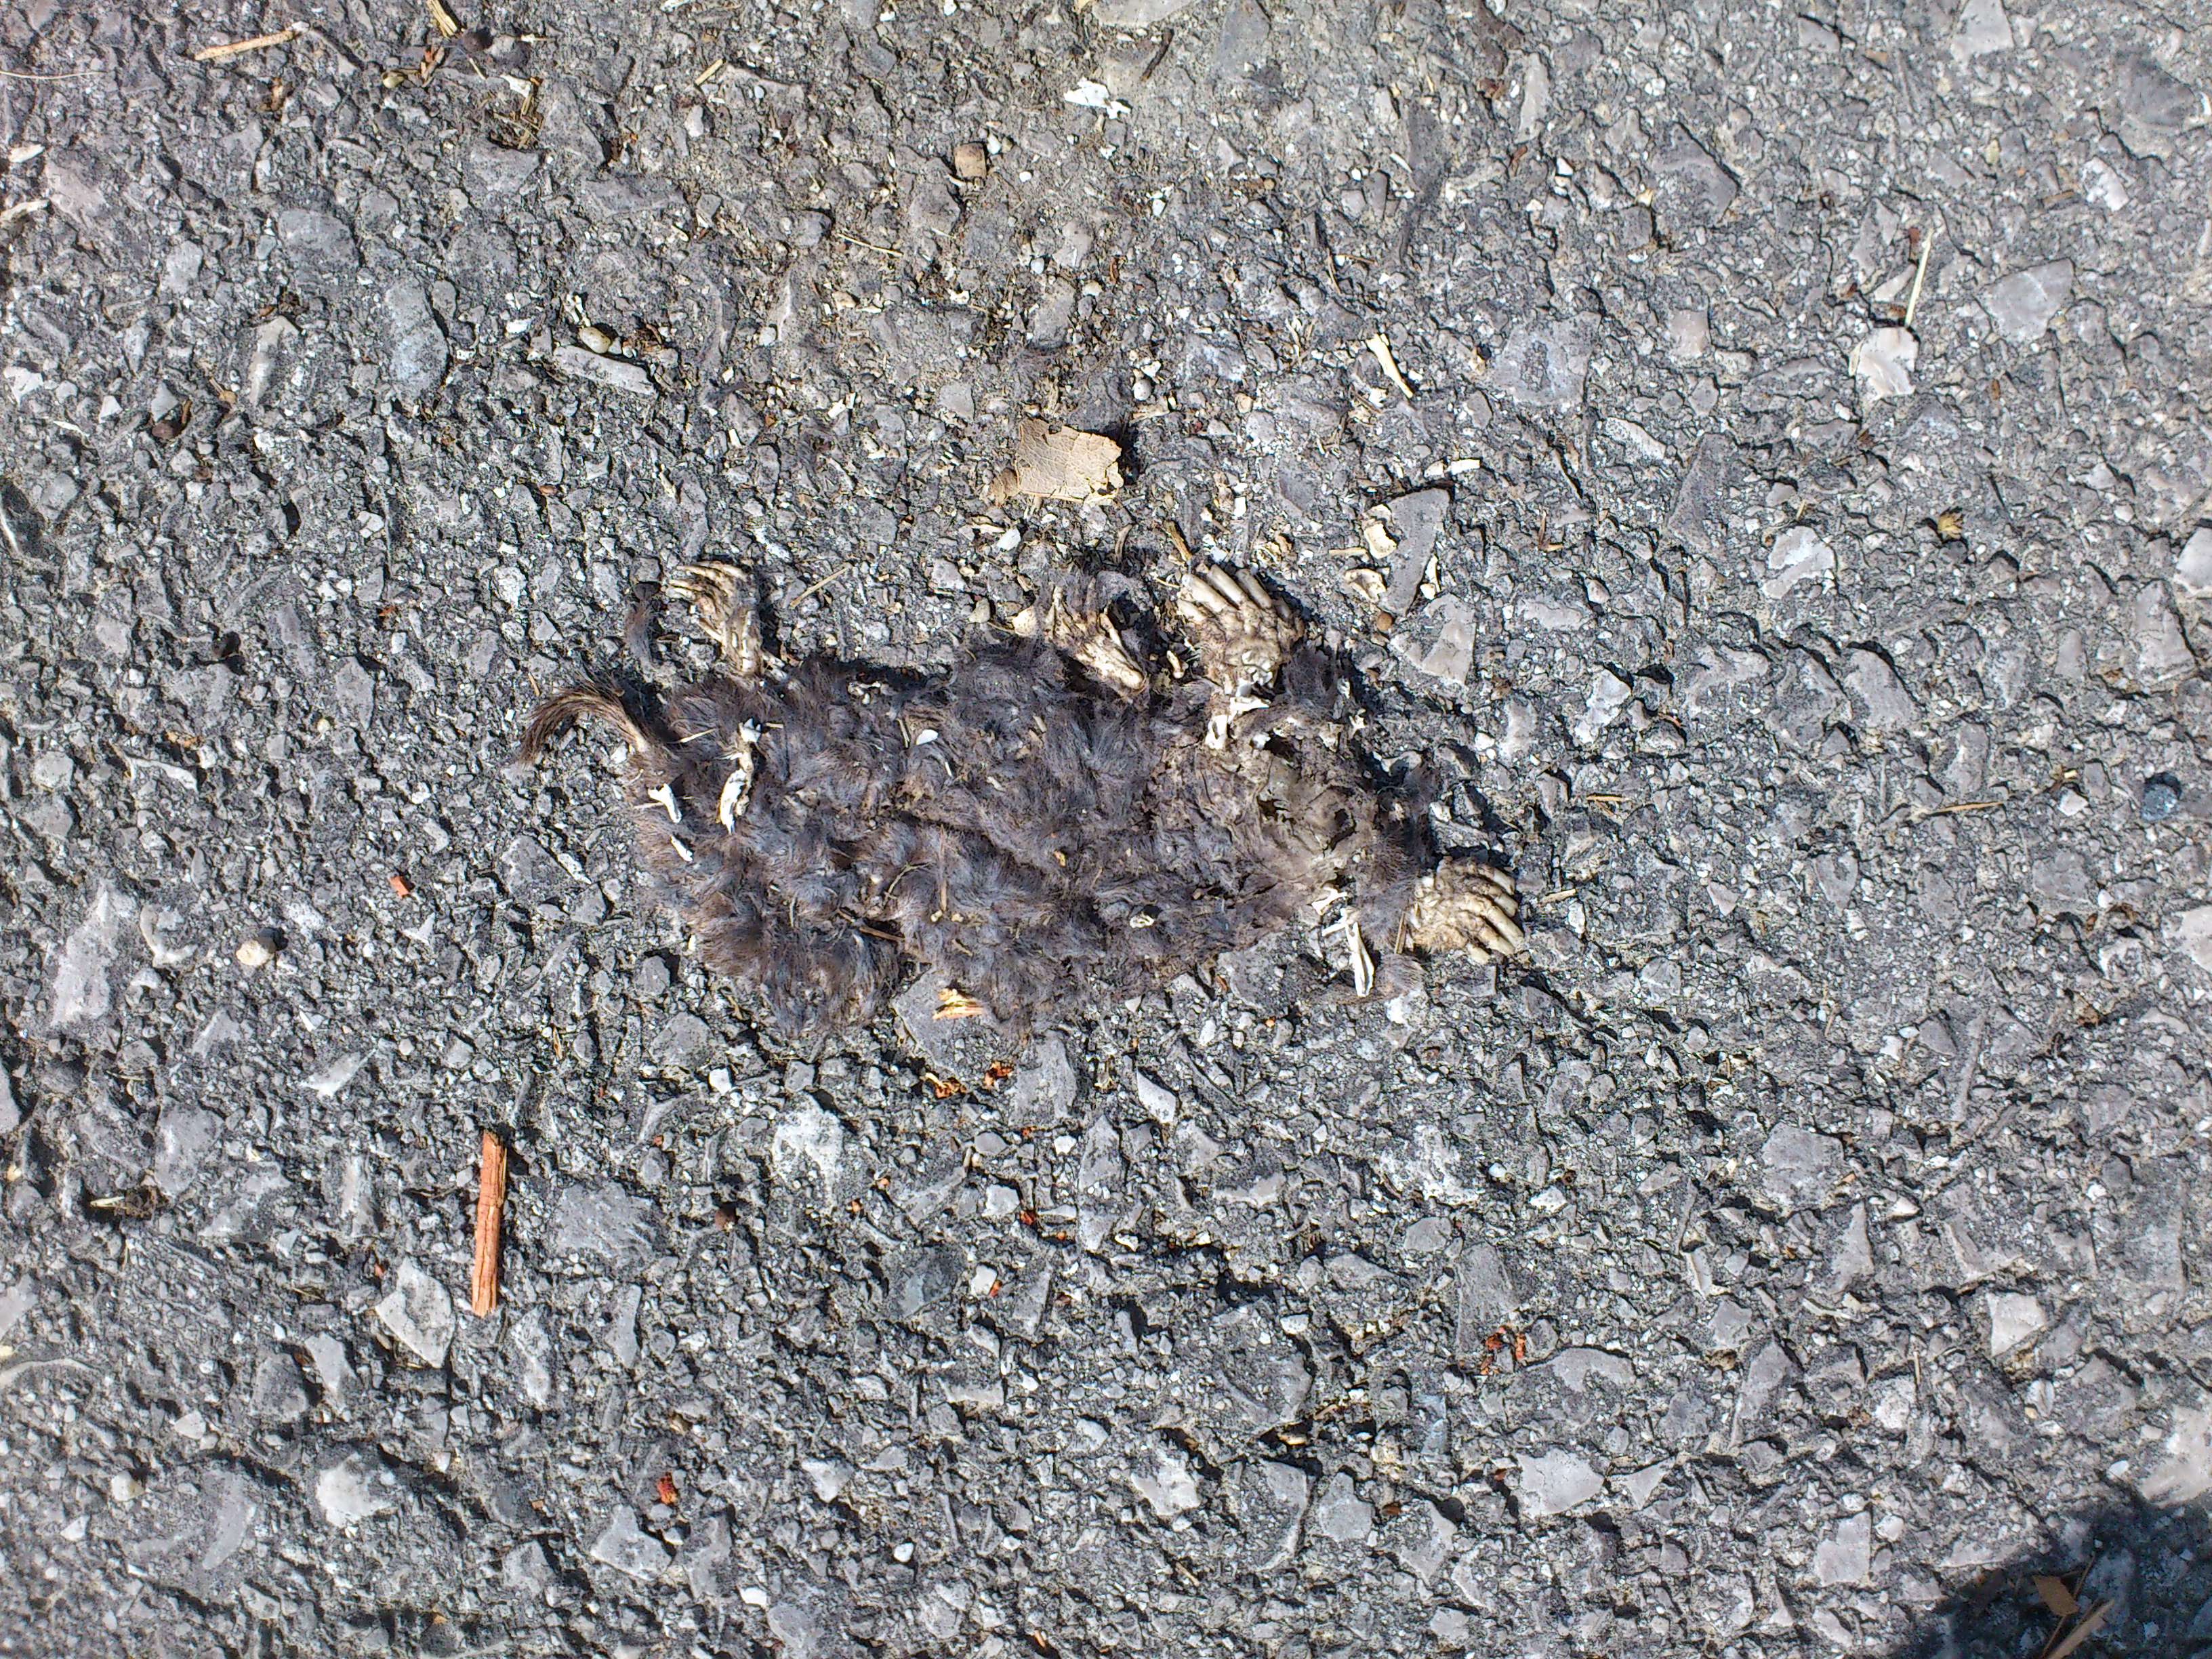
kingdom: Animalia
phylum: Chordata
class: Mammalia
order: Soricomorpha
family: Talpidae
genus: Talpa
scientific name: Talpa europaea
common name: European mole
